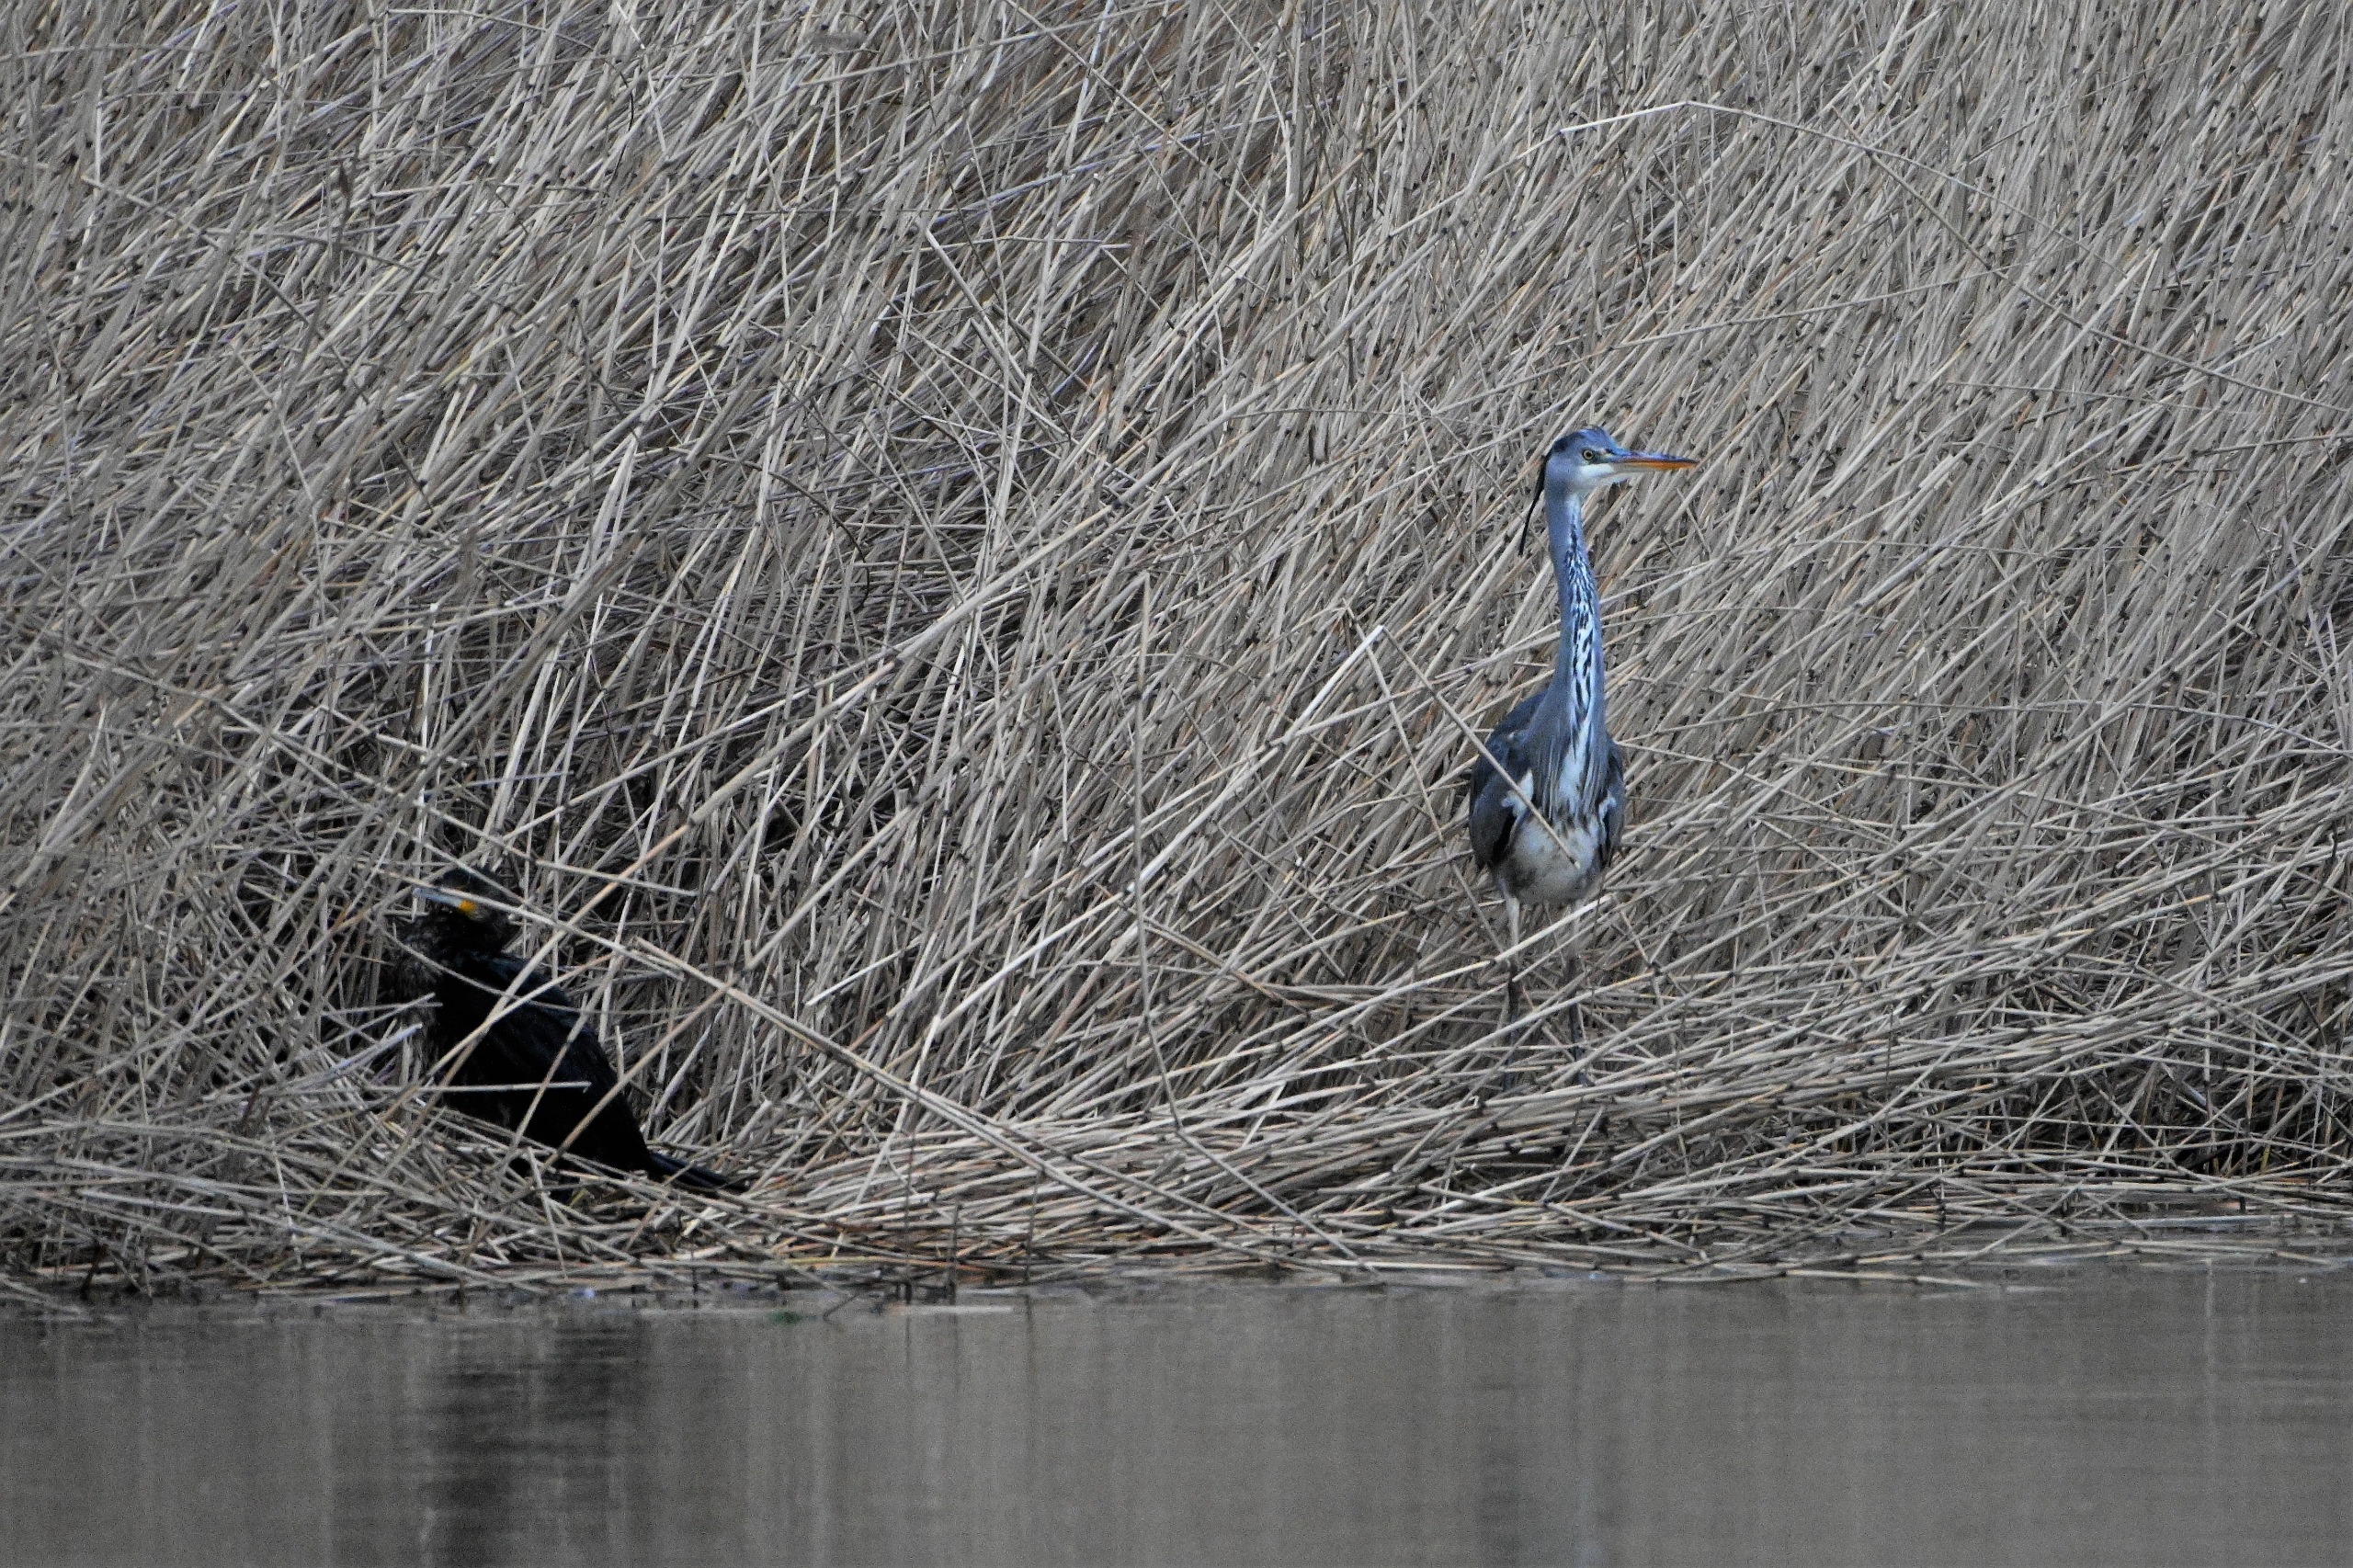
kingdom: Animalia
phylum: Chordata
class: Aves
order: Pelecaniformes
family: Ardeidae
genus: Ardea
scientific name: Ardea cinerea
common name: Fiskehejre
